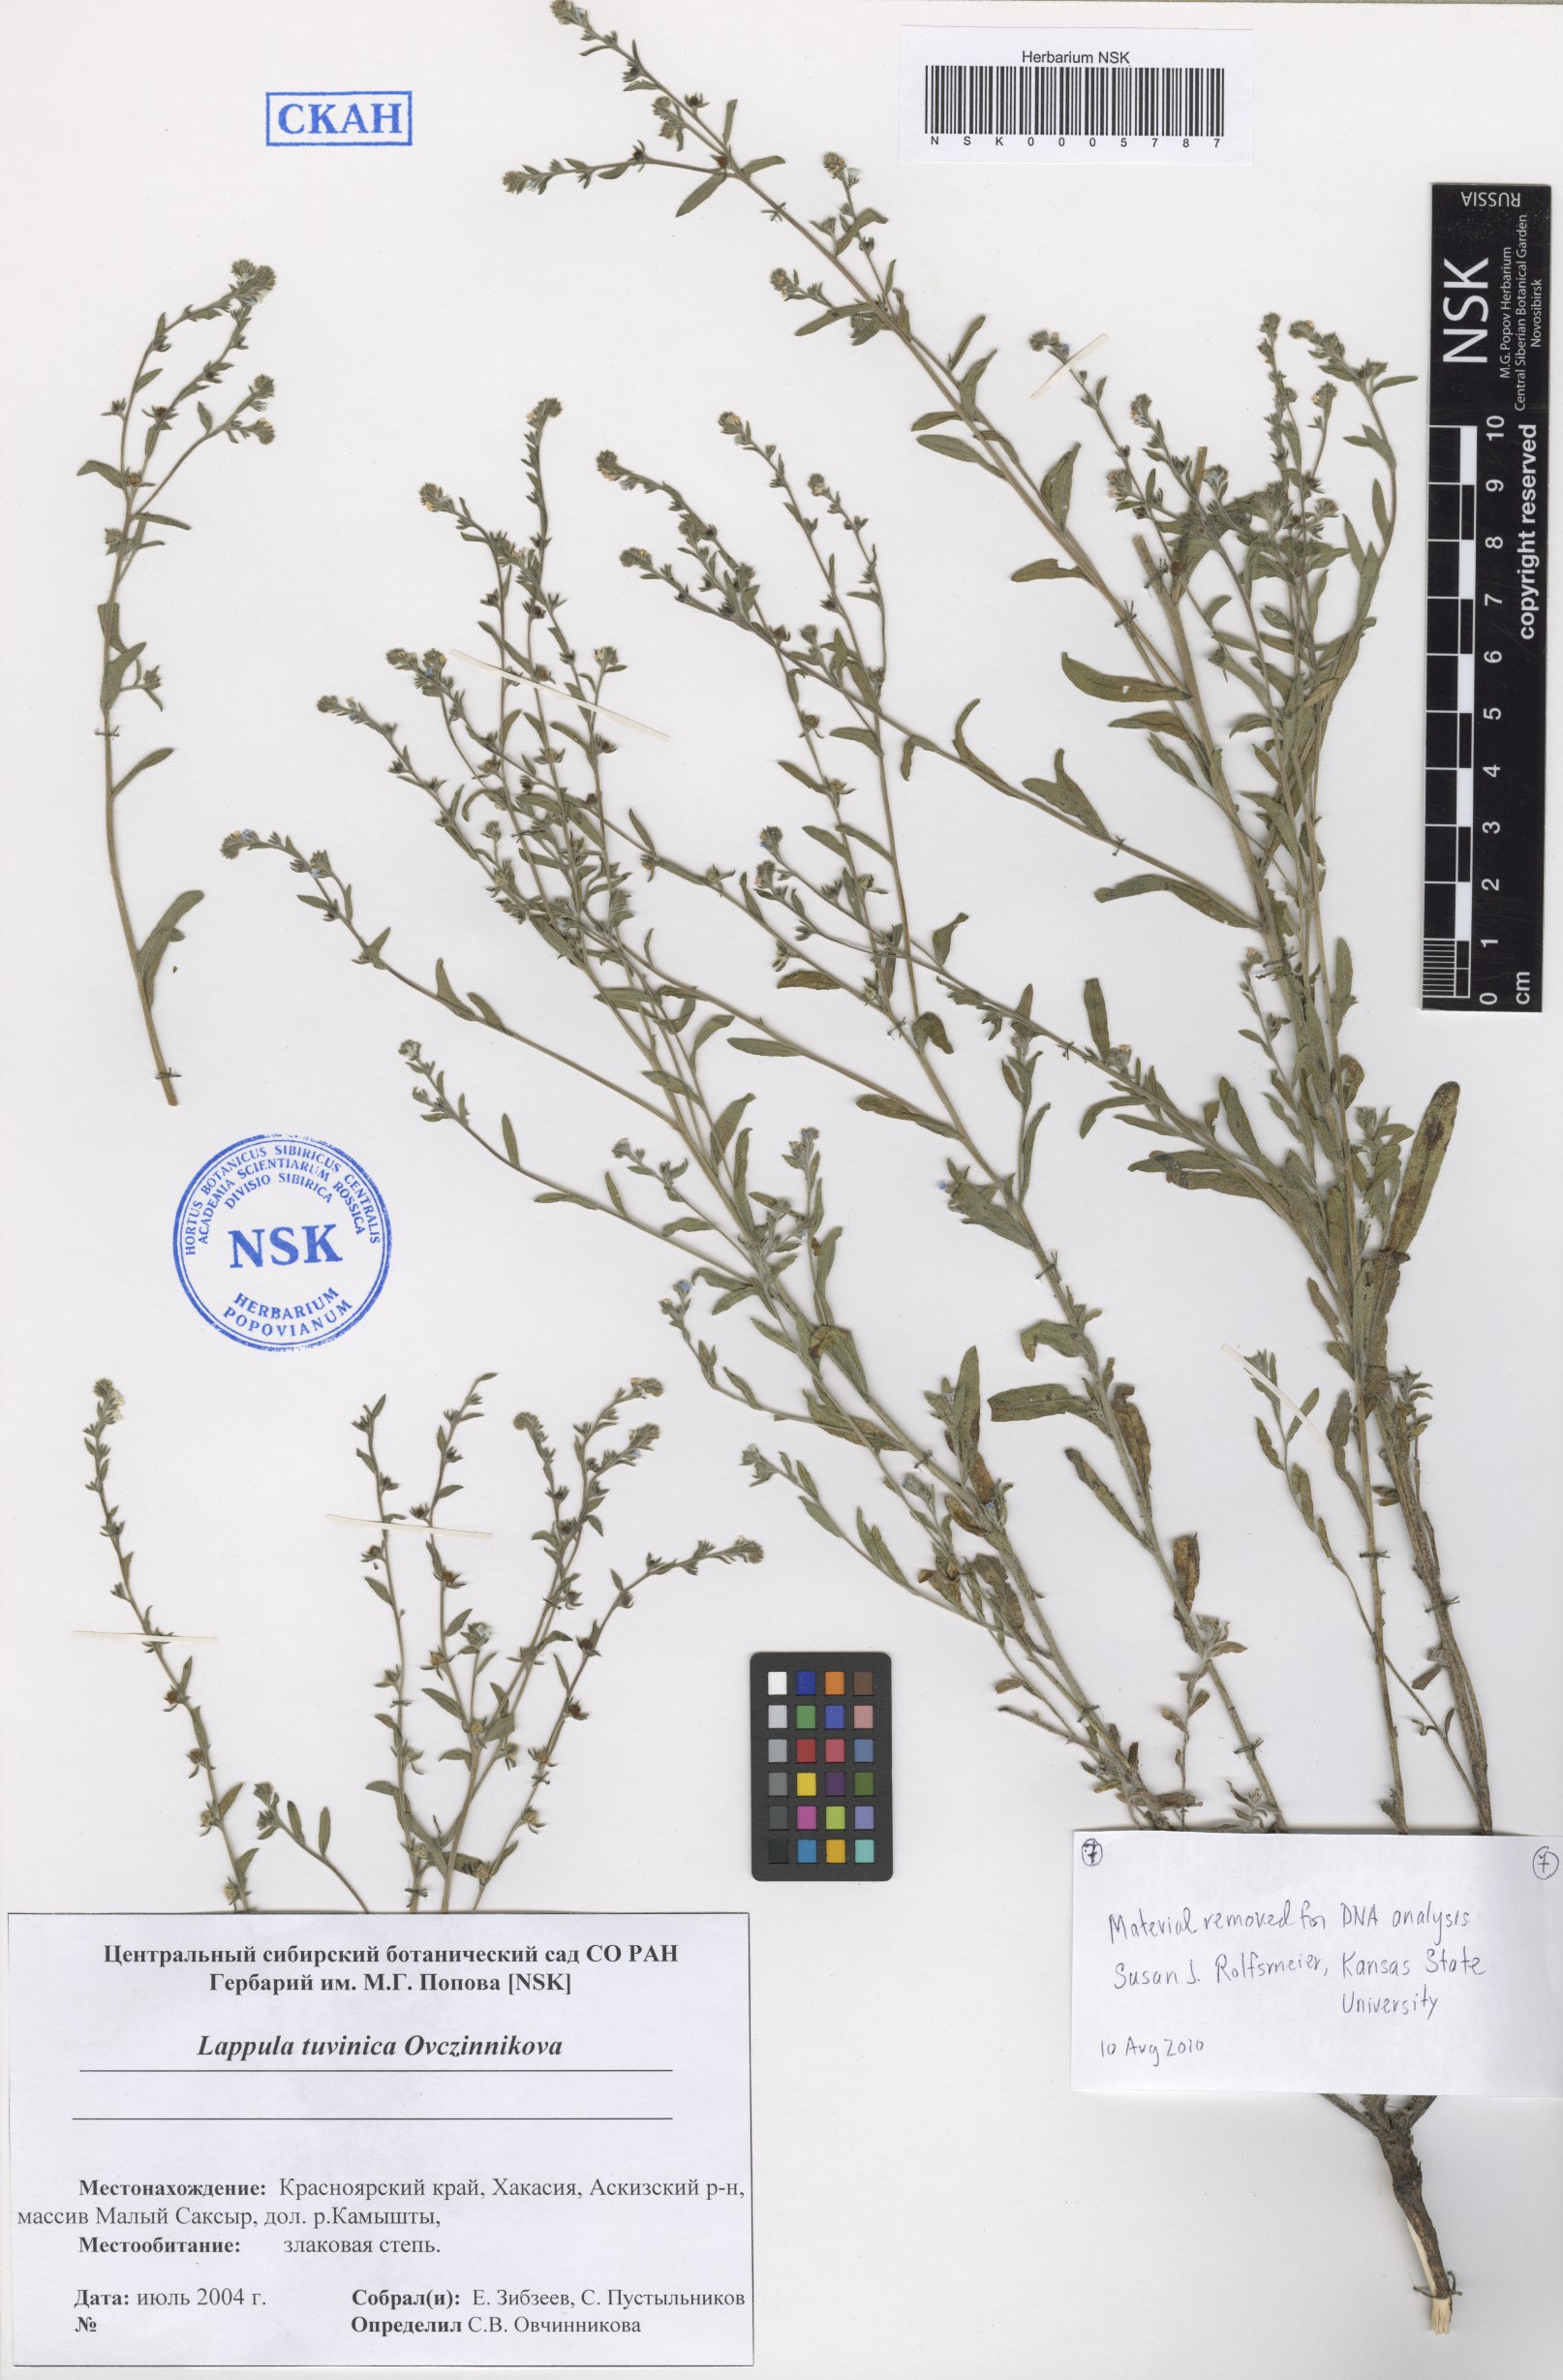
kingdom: Plantae
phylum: Tracheophyta
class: Magnoliopsida
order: Boraginales
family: Boraginaceae
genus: Lappula
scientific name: Lappula tuvinica
